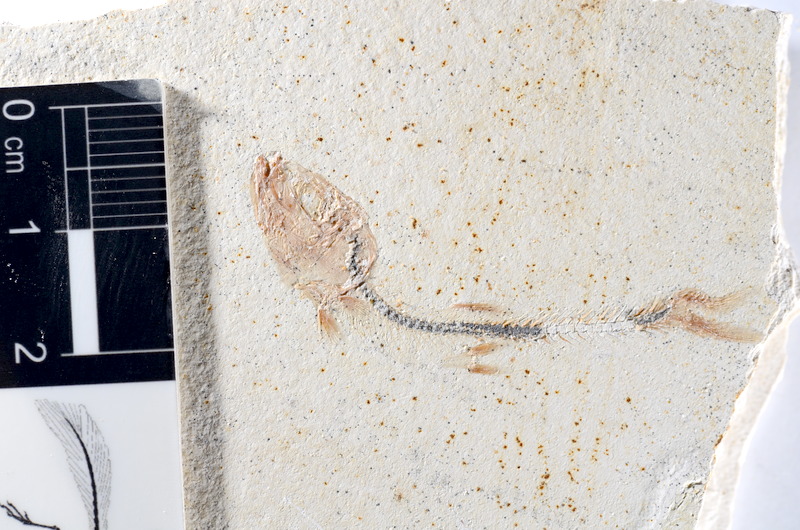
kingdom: Animalia
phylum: Chordata
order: Salmoniformes
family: Orthogonikleithridae
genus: Orthogonikleithrus
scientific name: Orthogonikleithrus hoelli
